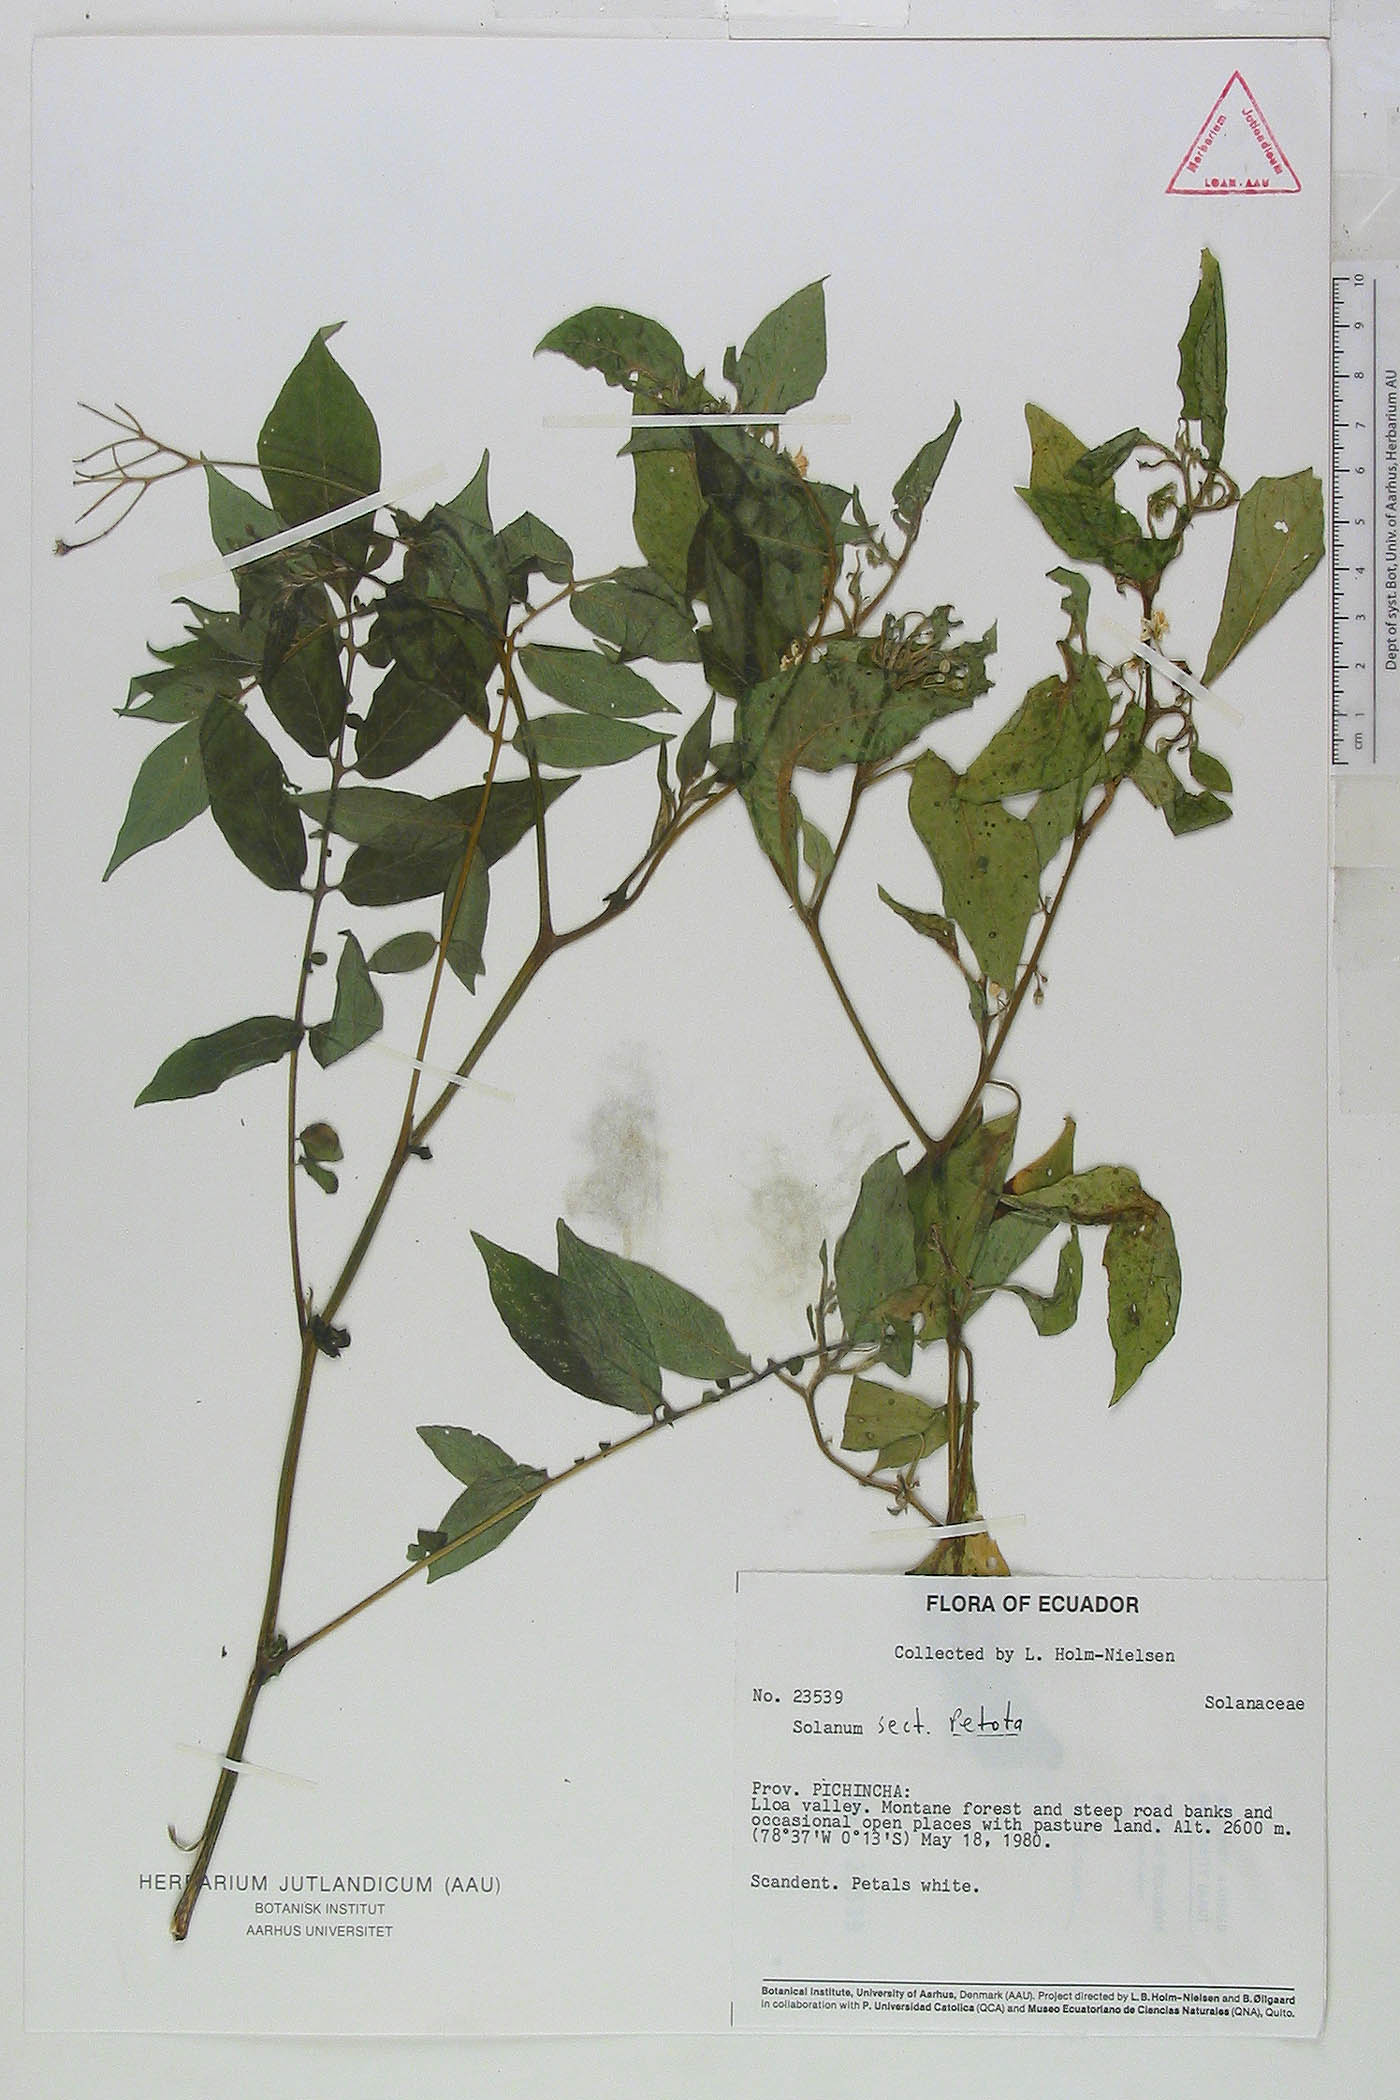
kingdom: Plantae
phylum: Tracheophyta
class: Magnoliopsida
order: Solanales
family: Solanaceae
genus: Solanum
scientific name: Solanum colombianum
